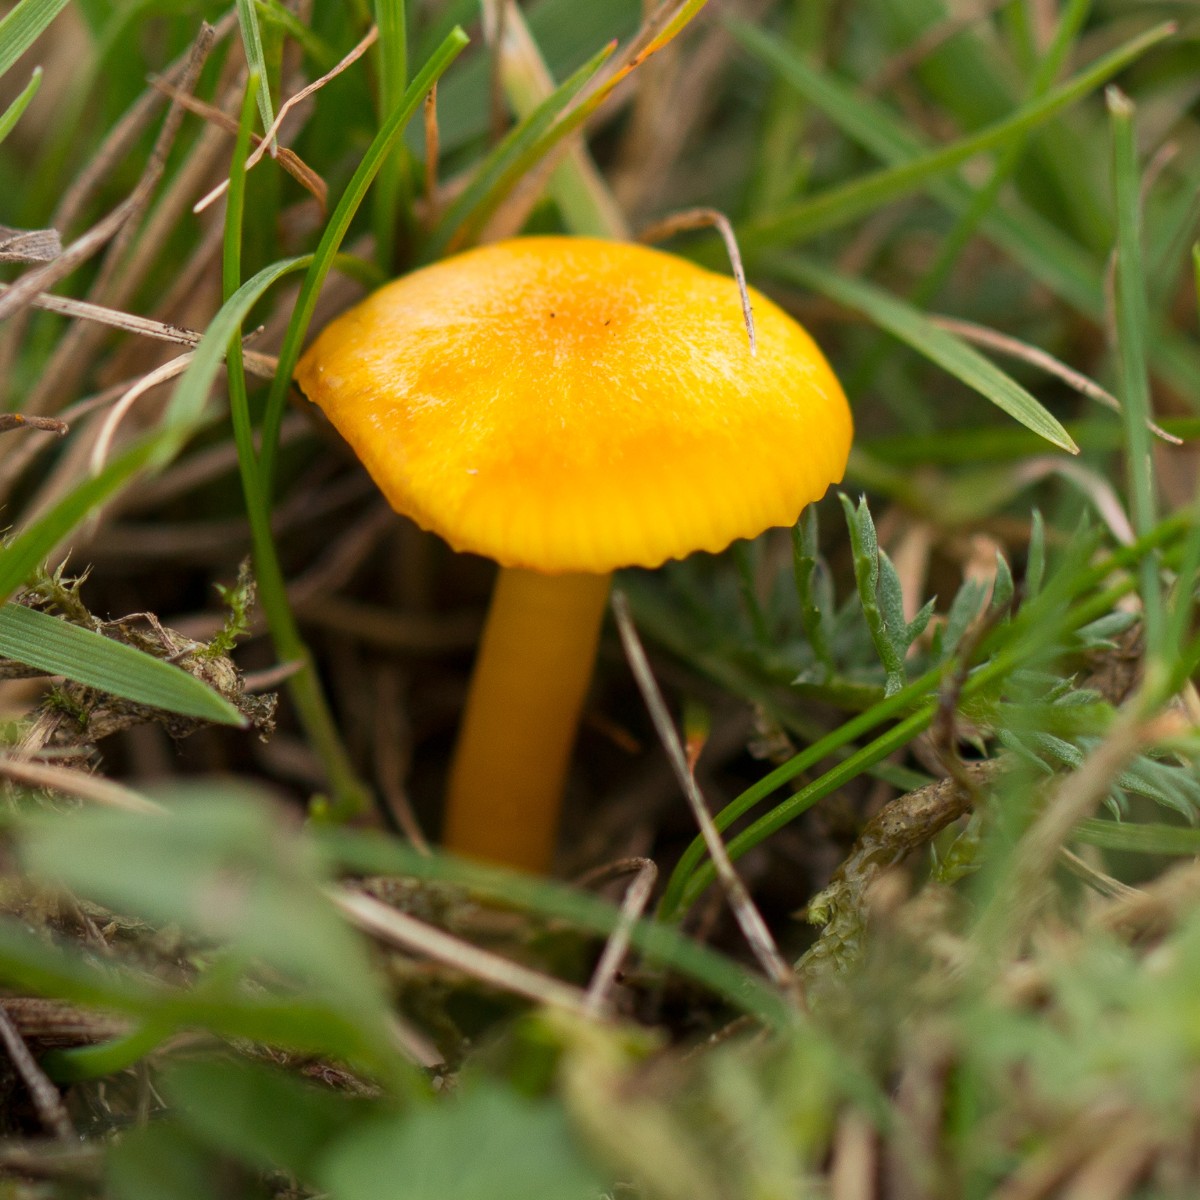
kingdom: Fungi
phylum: Basidiomycota
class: Agaricomycetes
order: Agaricales
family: Hygrophoraceae
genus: Hygrocybe
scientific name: Hygrocybe
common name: vokshat
